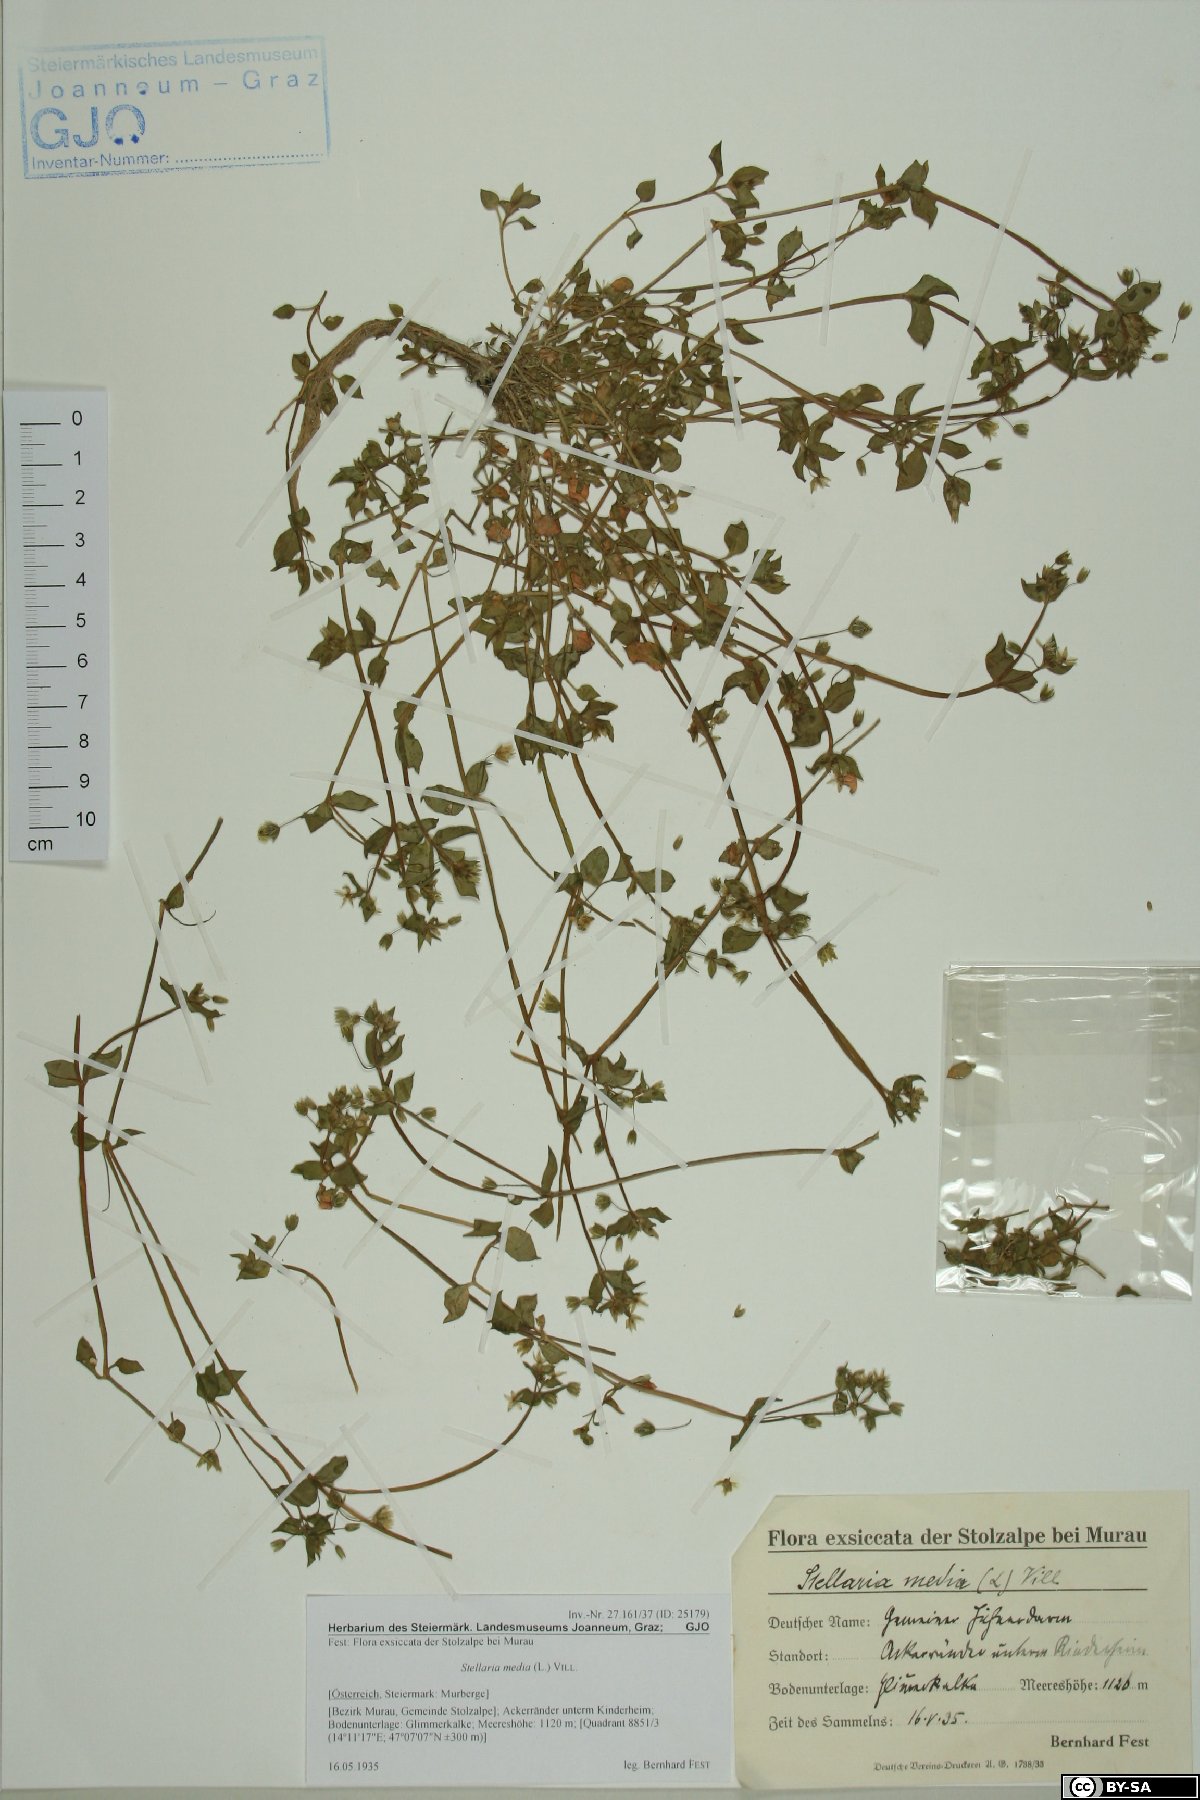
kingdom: Plantae
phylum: Tracheophyta
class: Magnoliopsida
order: Caryophyllales
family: Caryophyllaceae
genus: Stellaria
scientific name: Stellaria media
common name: Common chickweed
